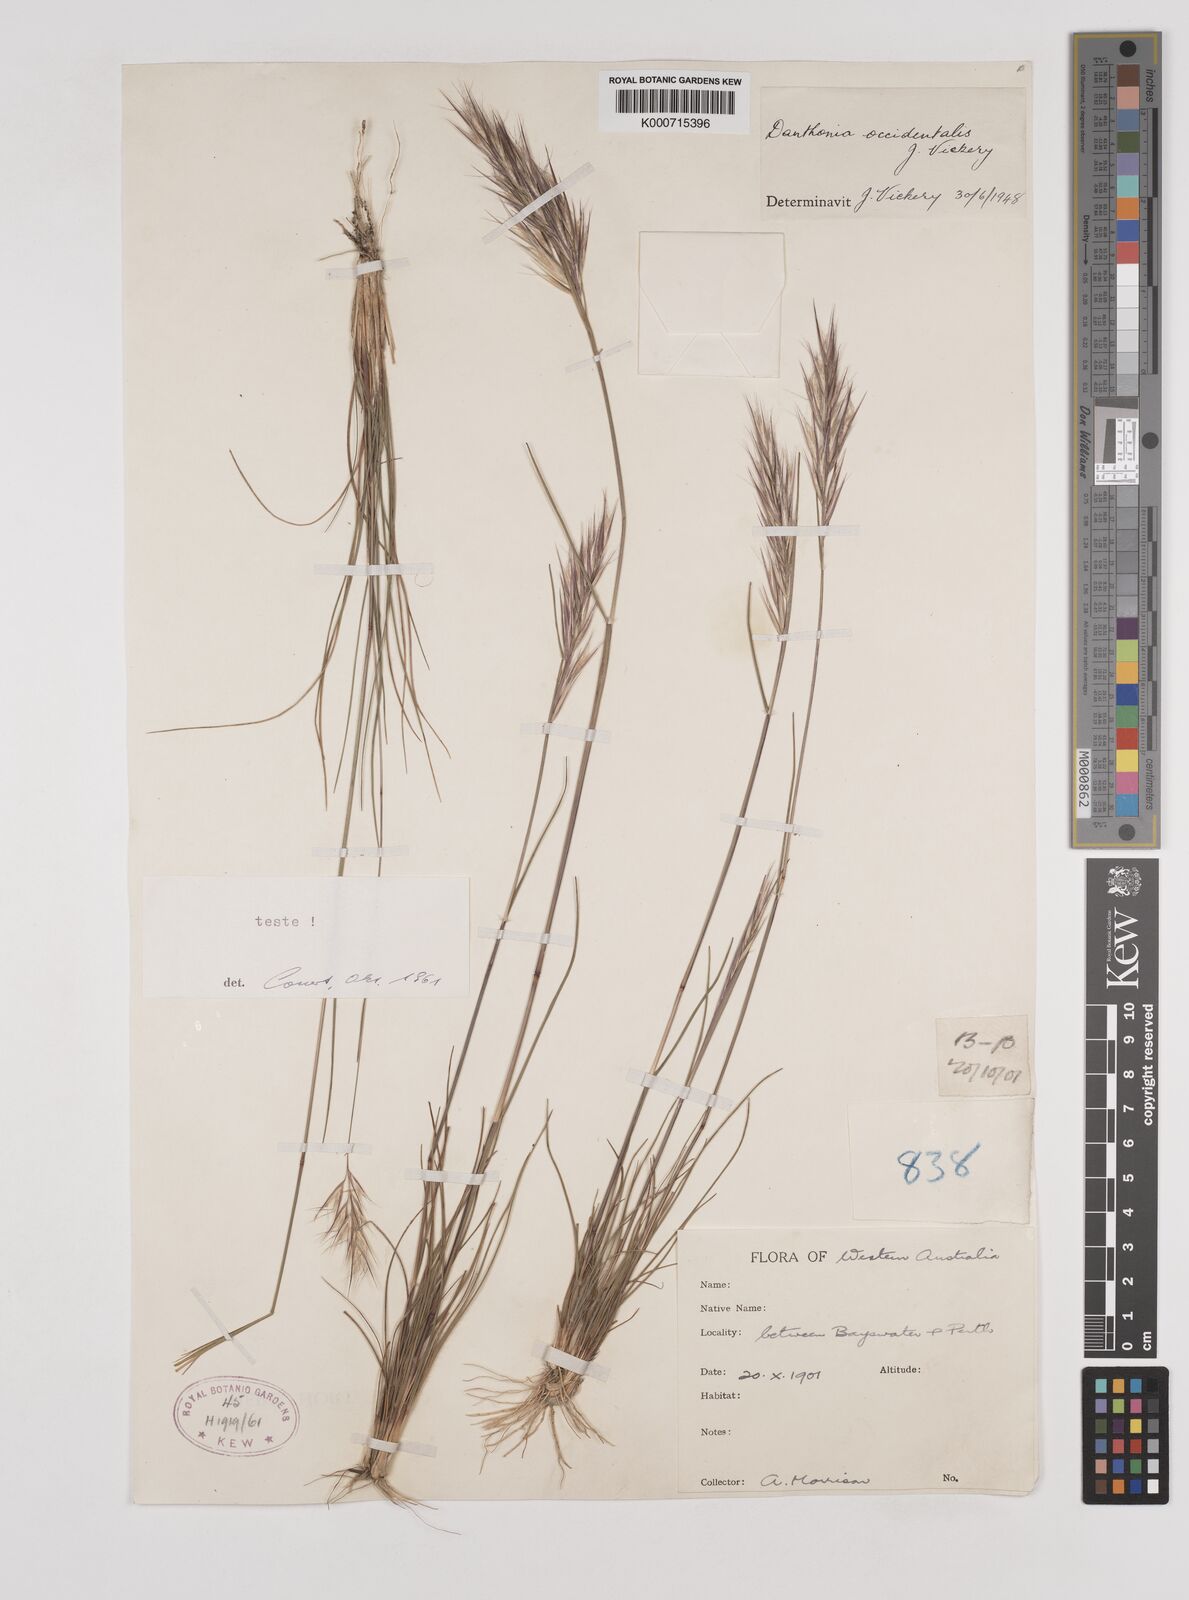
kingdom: Plantae
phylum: Tracheophyta
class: Liliopsida
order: Poales
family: Poaceae
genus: Rytidosperma
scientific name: Rytidosperma occidentale
